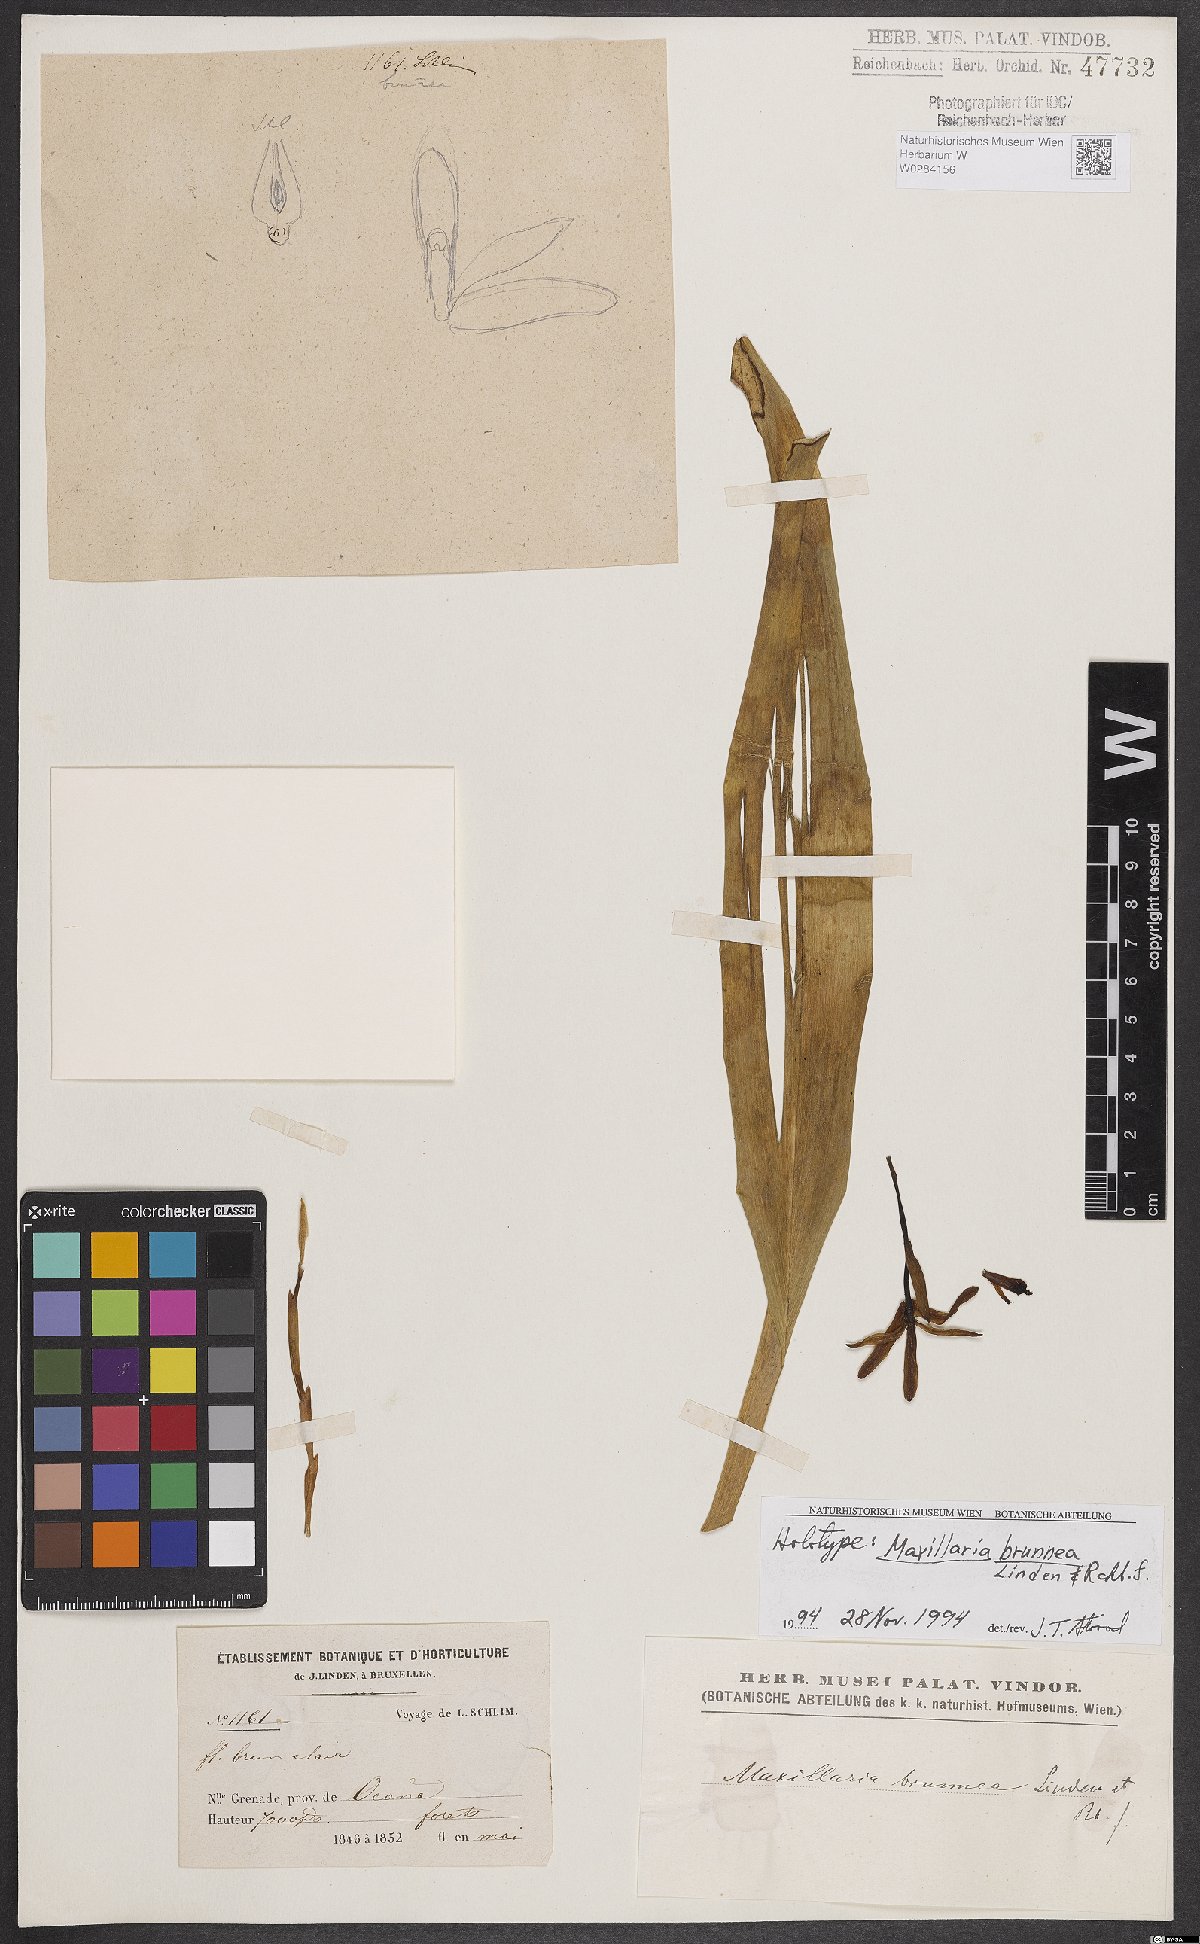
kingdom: Plantae
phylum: Tracheophyta
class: Liliopsida
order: Asparagales
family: Orchidaceae
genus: Maxillaria
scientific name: Maxillaria porrecta
